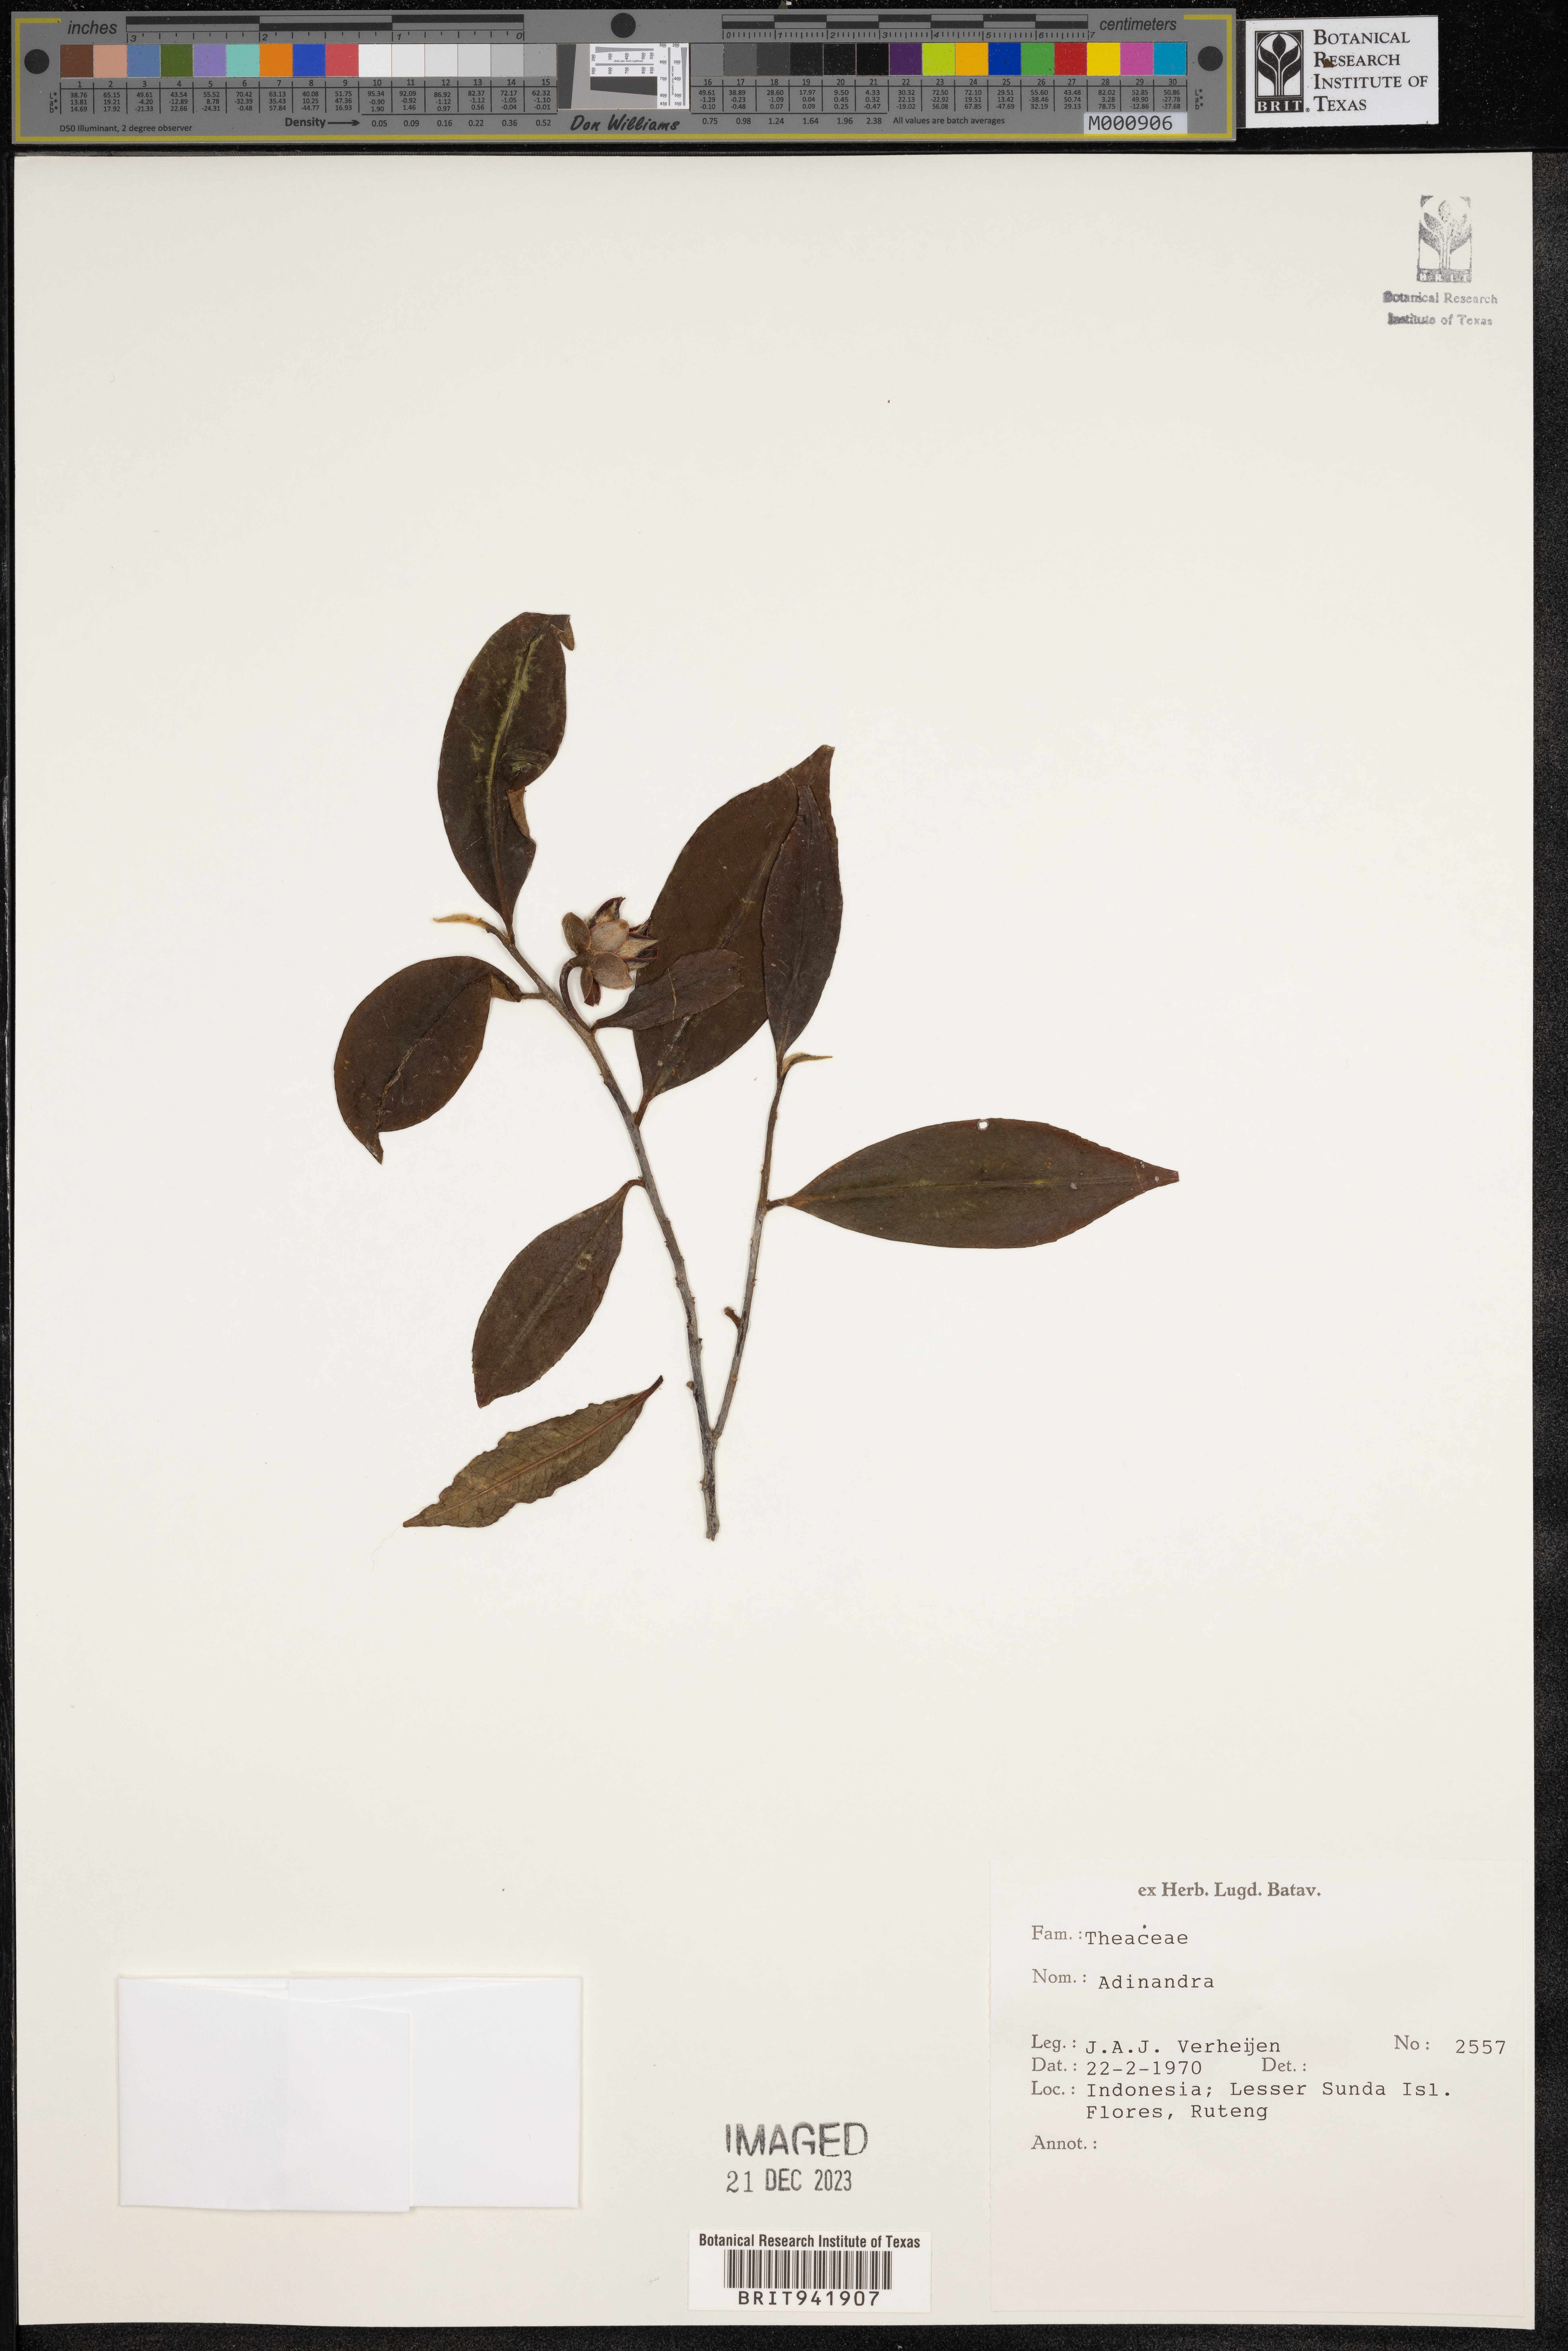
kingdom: Plantae
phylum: Tracheophyta
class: Magnoliopsida
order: Ericales
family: Pentaphylacaceae
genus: Adinandra
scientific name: Adinandra
